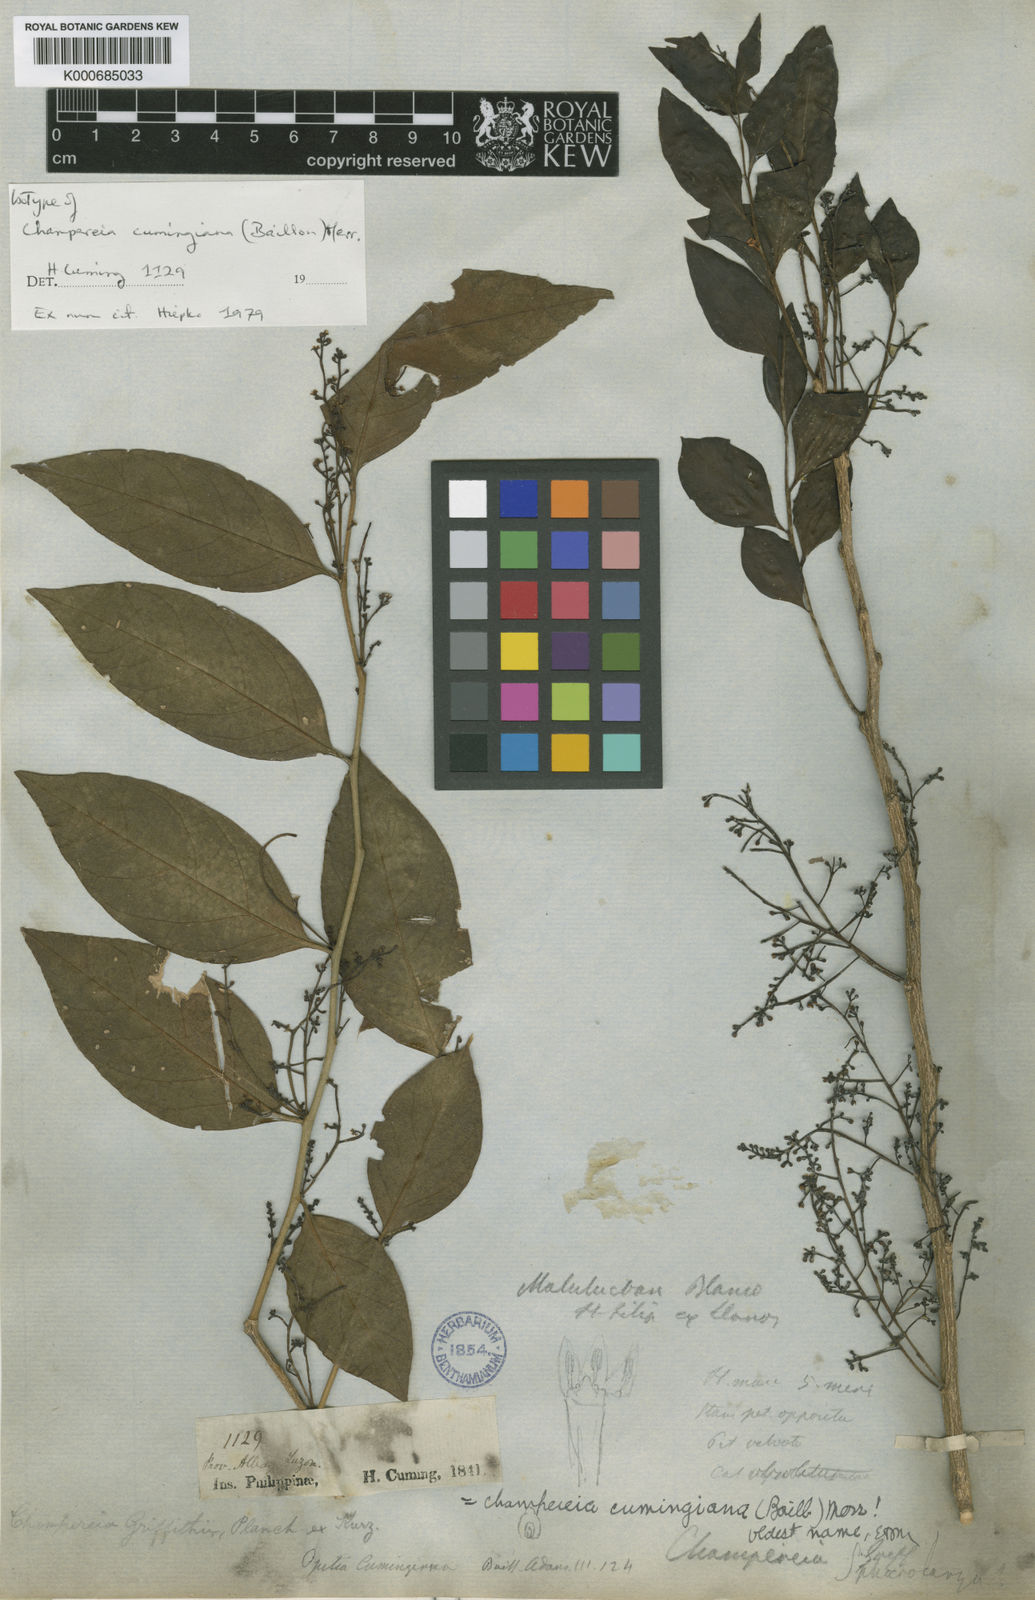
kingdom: Plantae
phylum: Tracheophyta
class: Magnoliopsida
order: Santalales
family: Opiliaceae
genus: Champereia
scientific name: Champereia manillana
